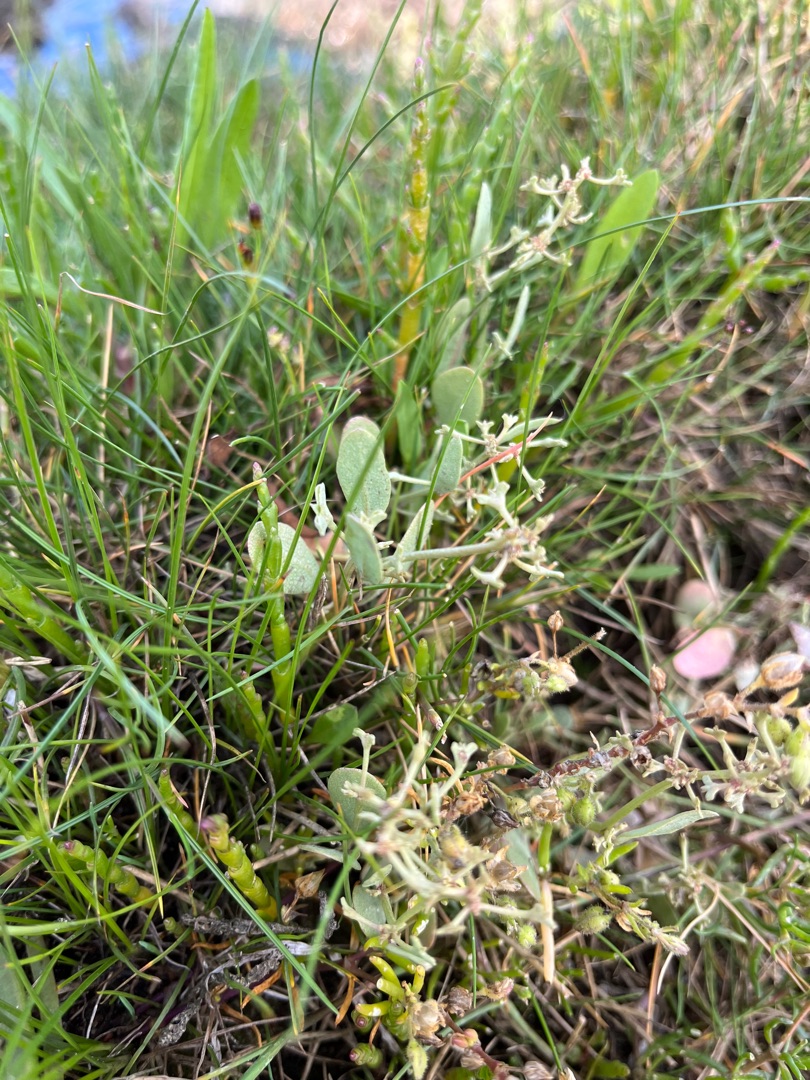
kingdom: Plantae
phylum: Tracheophyta
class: Magnoliopsida
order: Caryophyllales
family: Amaranthaceae
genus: Halimione
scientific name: Halimione pedunculata
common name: Stilket kilebæger
